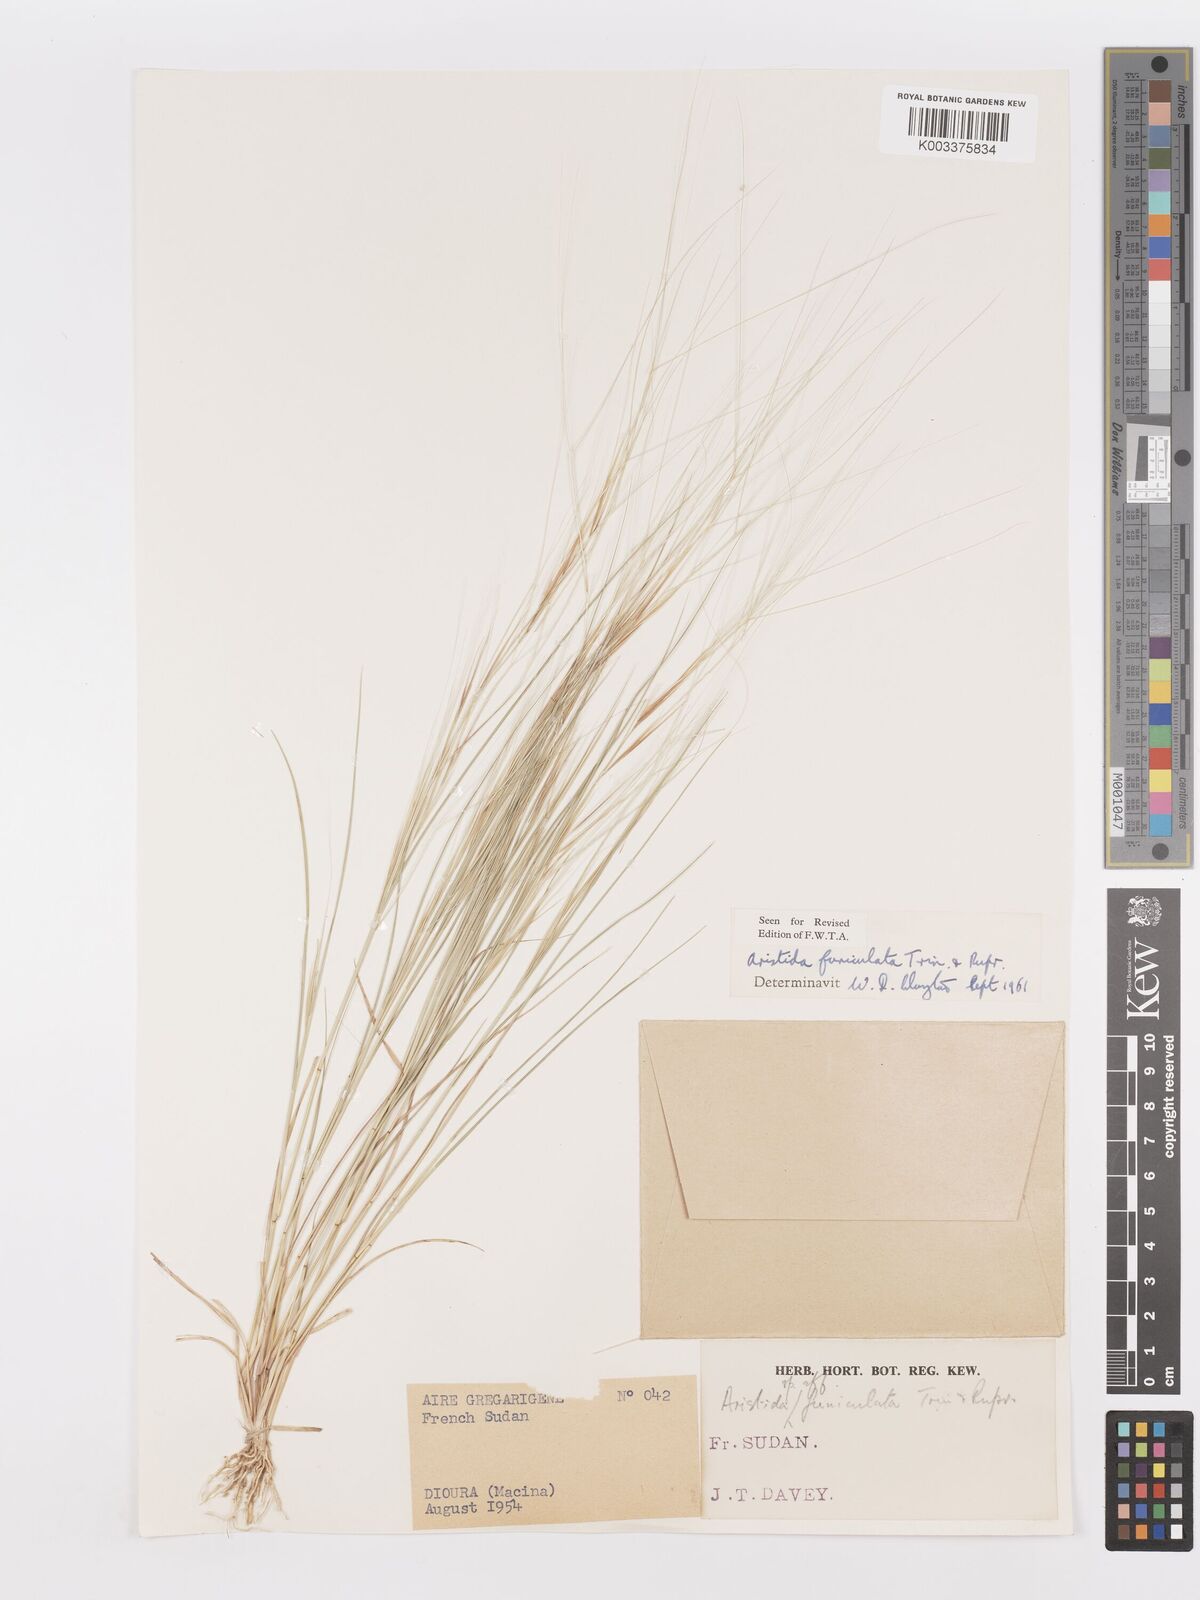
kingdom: Plantae
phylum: Tracheophyta
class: Liliopsida
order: Poales
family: Poaceae
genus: Aristida
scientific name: Aristida funiculata
